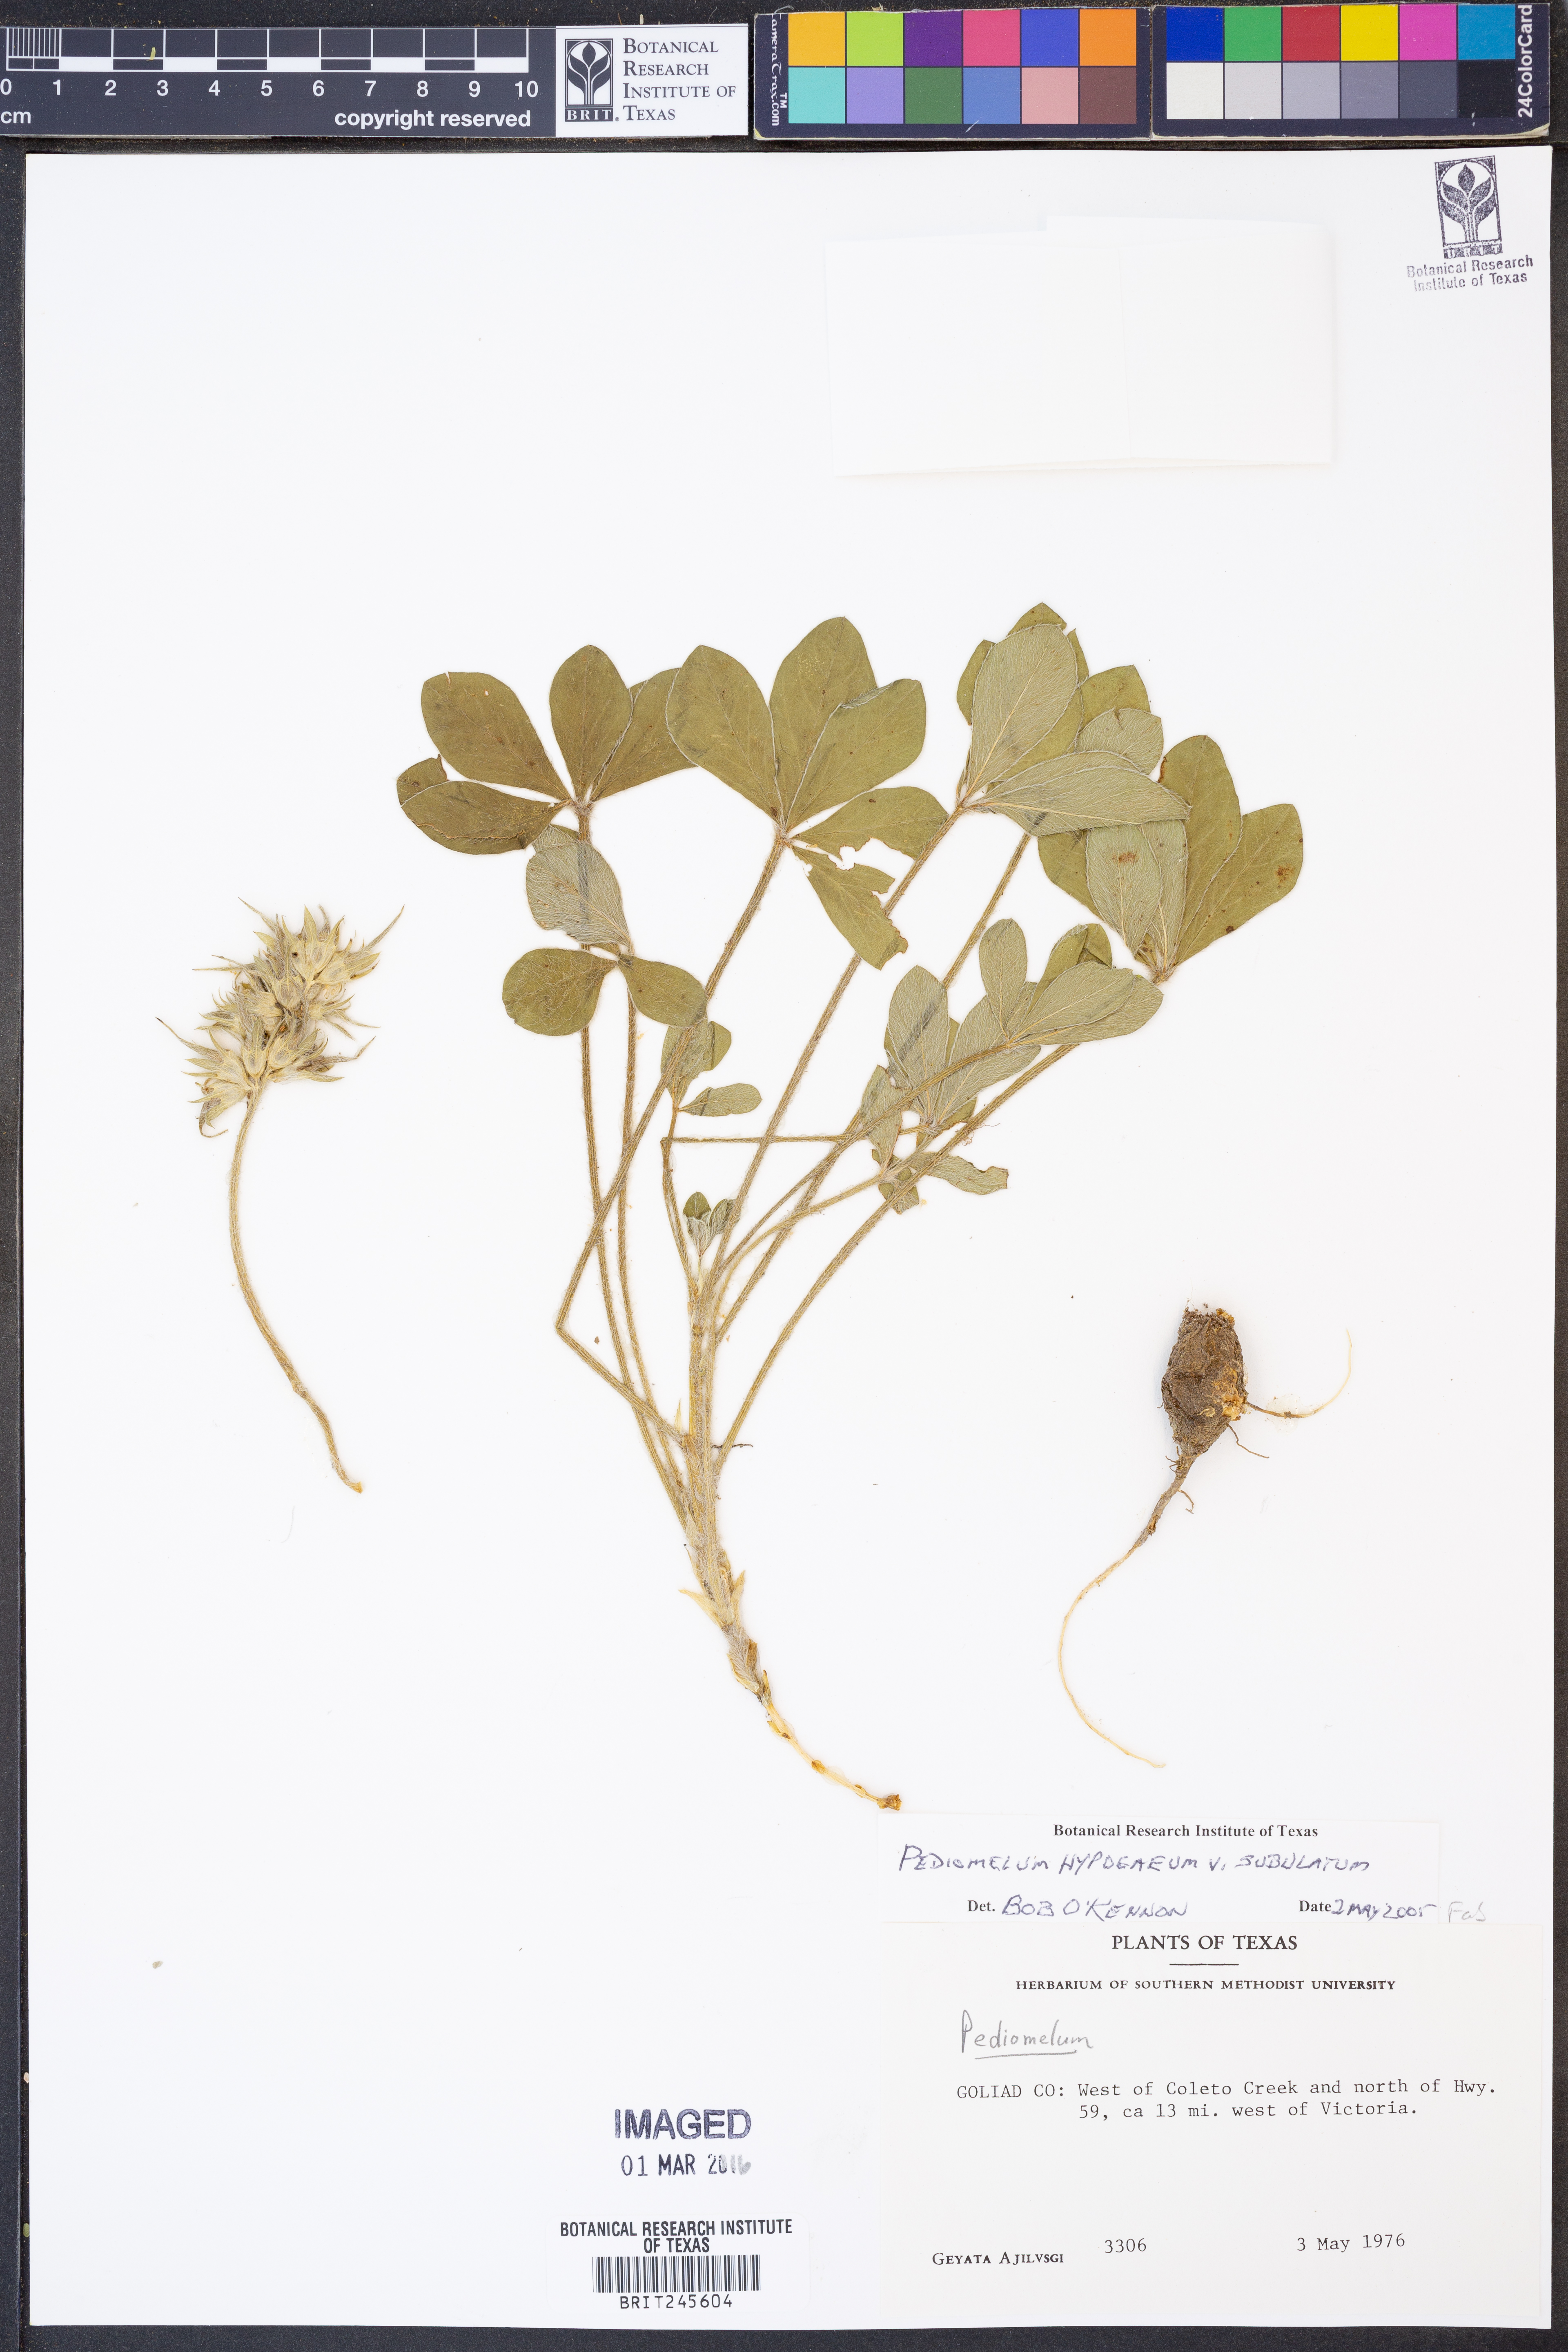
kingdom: Plantae
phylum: Tracheophyta
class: Magnoliopsida
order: Fabales
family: Fabaceae
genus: Pediomelum
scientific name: Pediomelum hypogaeum
